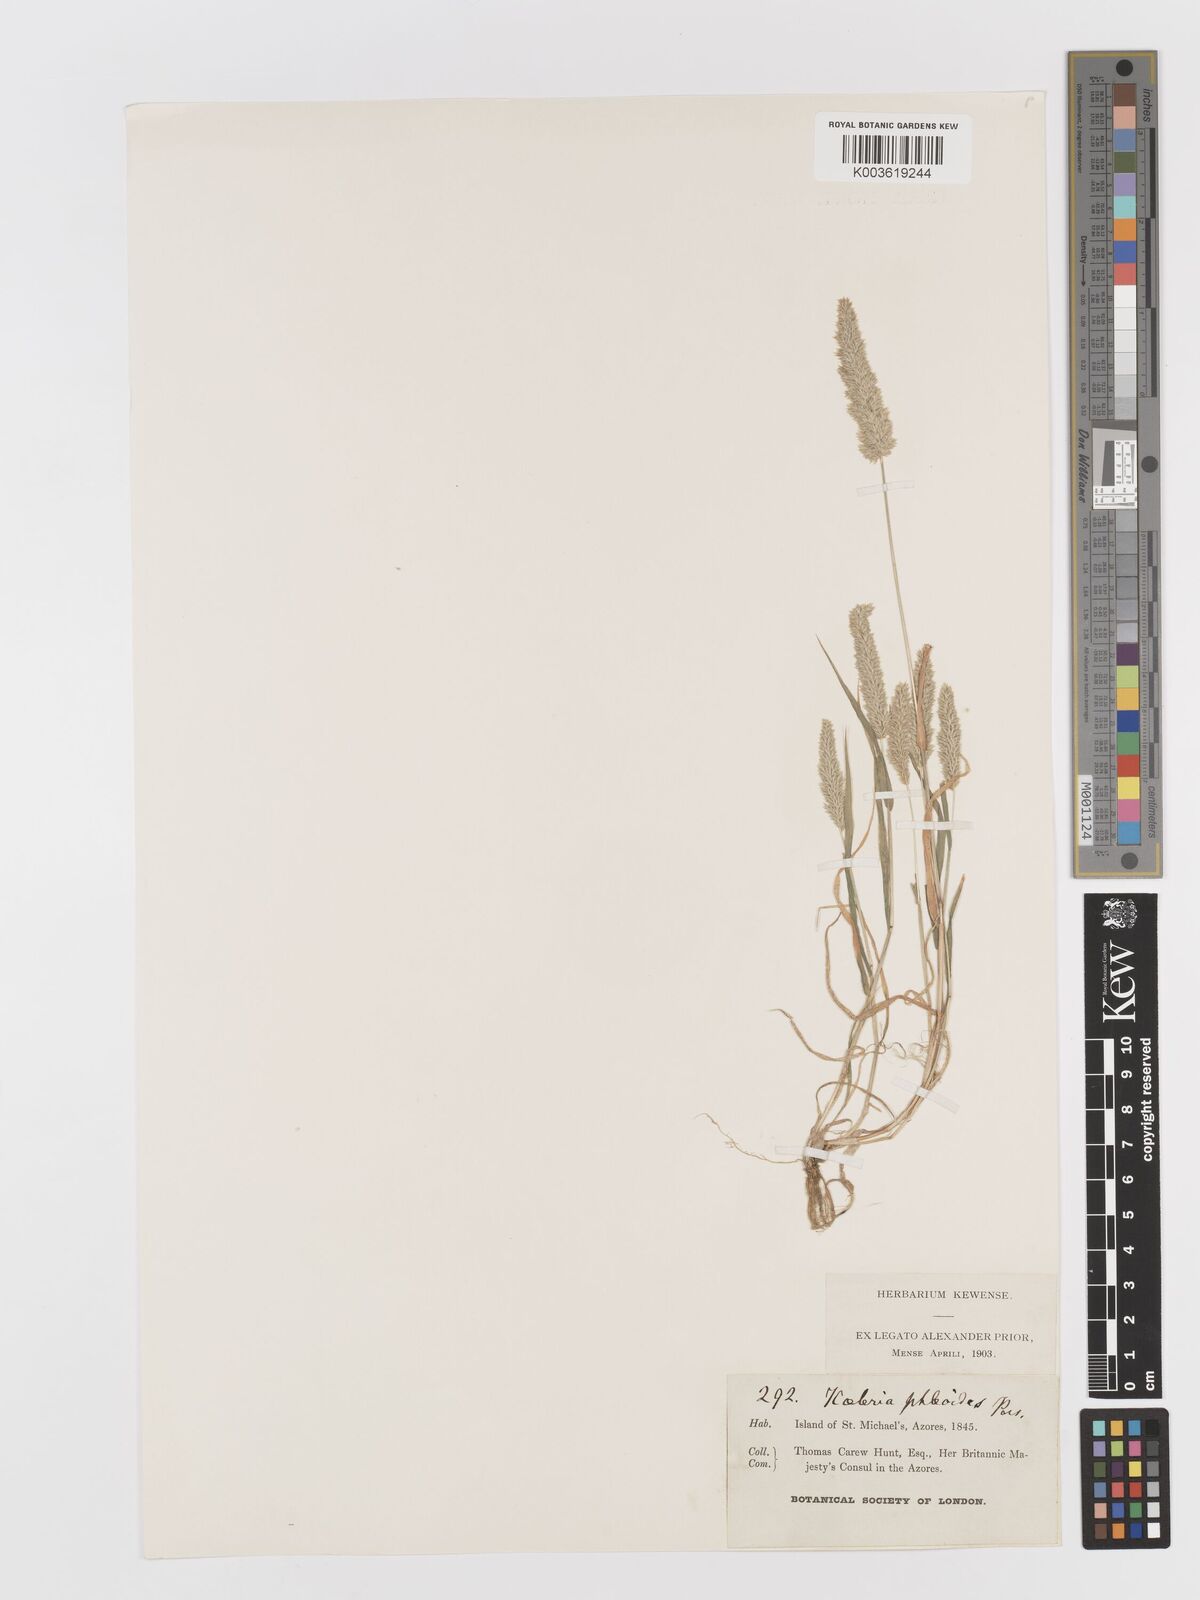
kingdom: Plantae
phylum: Tracheophyta
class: Liliopsida
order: Poales
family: Poaceae
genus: Rostraria
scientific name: Rostraria cristata
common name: Mediterranean hair-grass
